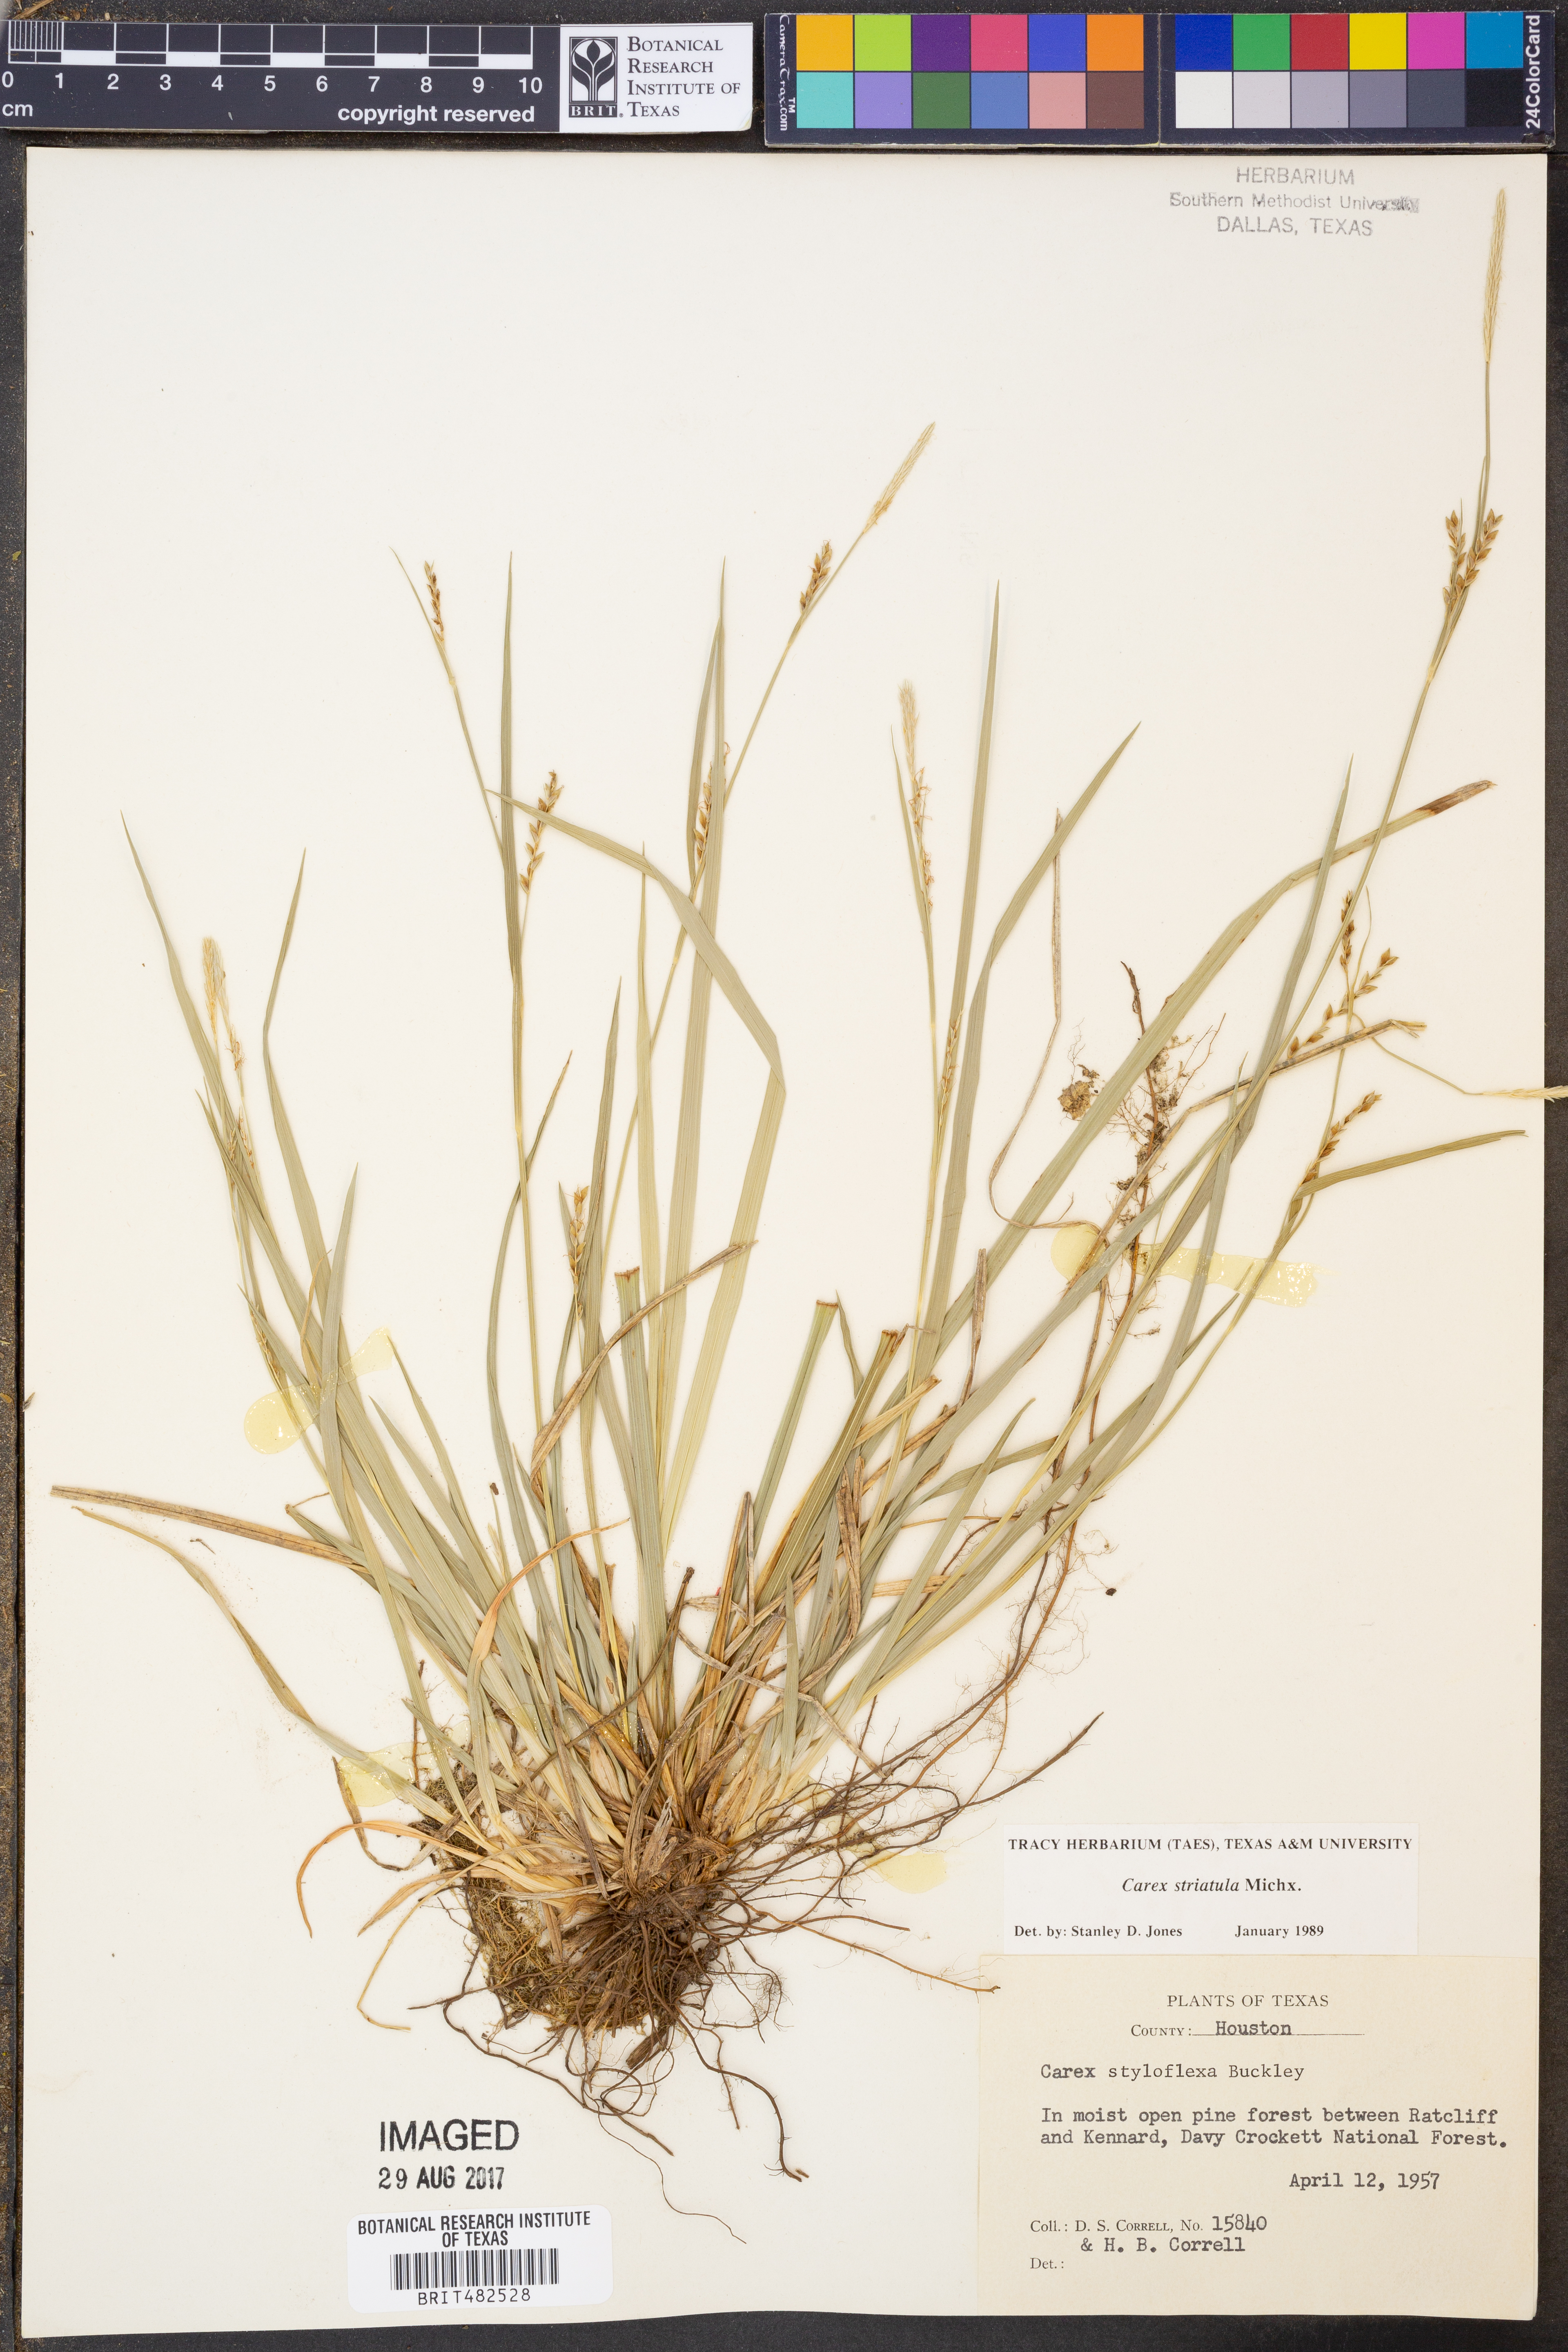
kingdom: Plantae
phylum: Tracheophyta
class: Liliopsida
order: Poales
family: Cyperaceae
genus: Carex
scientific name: Carex striatula
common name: Lined sedge
